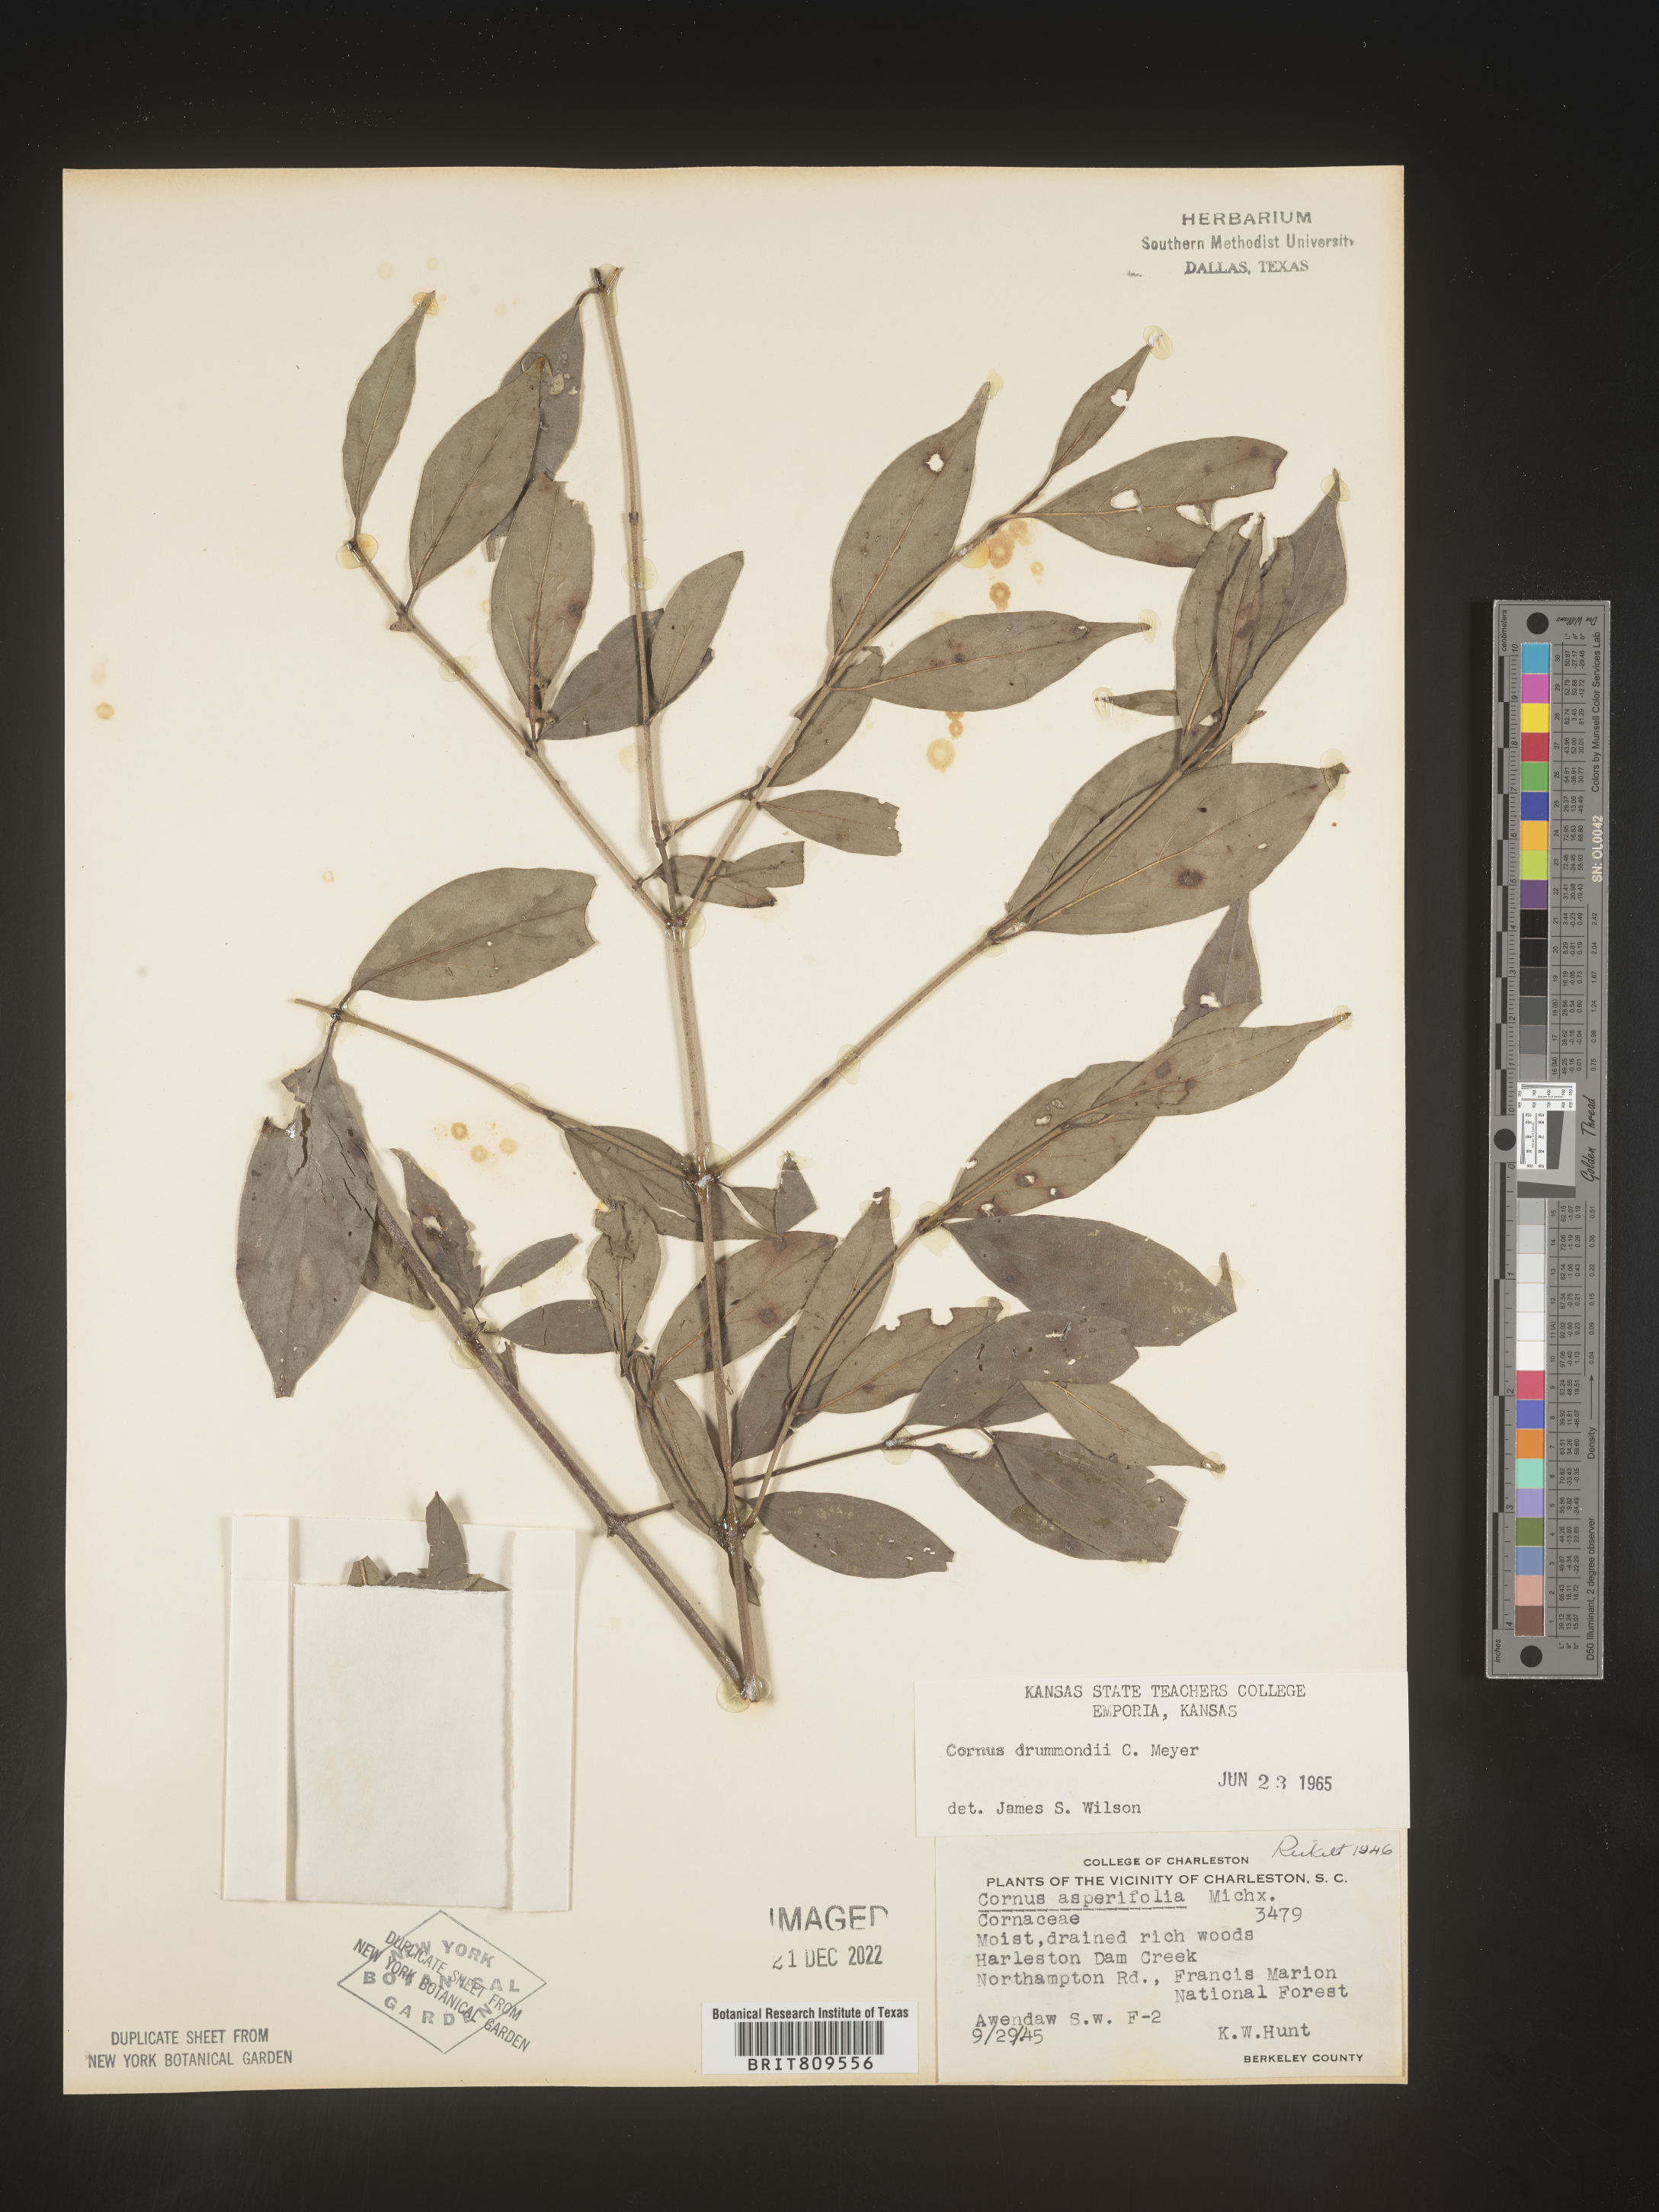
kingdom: Plantae
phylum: Tracheophyta
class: Magnoliopsida
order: Cornales
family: Cornaceae
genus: Cornus
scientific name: Cornus drummondii
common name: Rough-leaf dogwood
